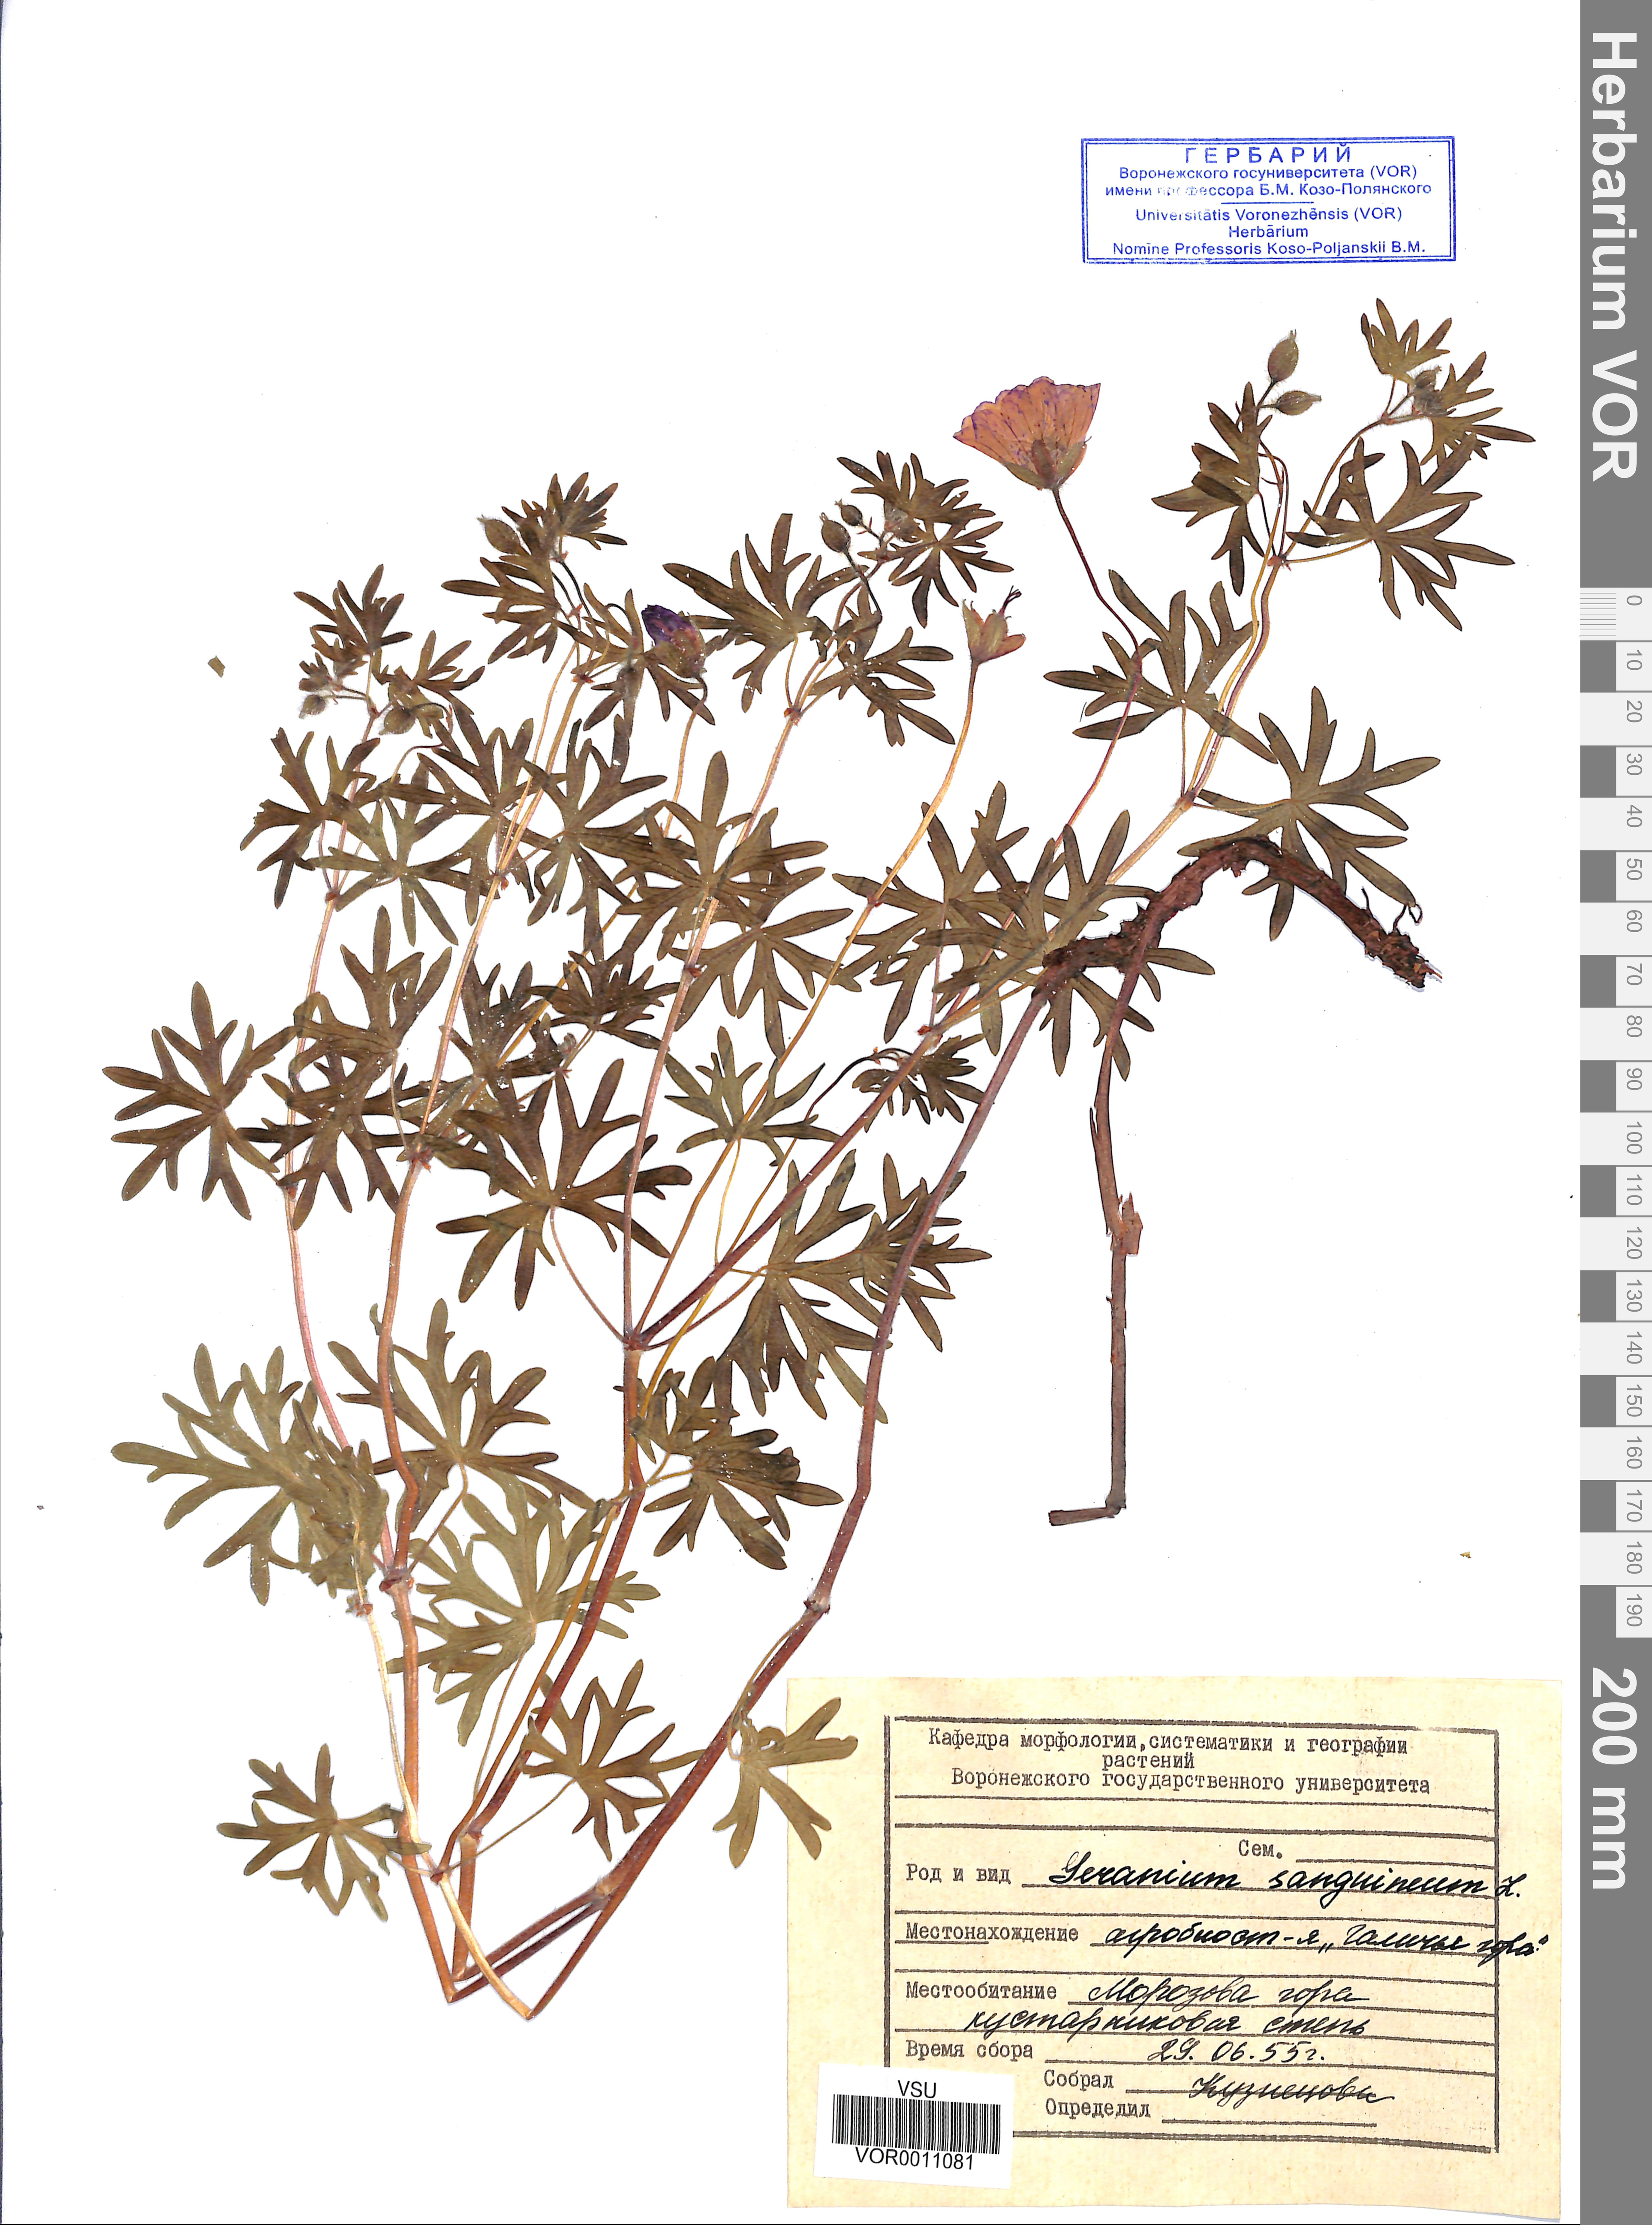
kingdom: Plantae
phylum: Tracheophyta
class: Magnoliopsida
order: Geraniales
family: Geraniaceae
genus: Geranium
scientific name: Geranium sanguineum
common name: Bloody crane's-bill
